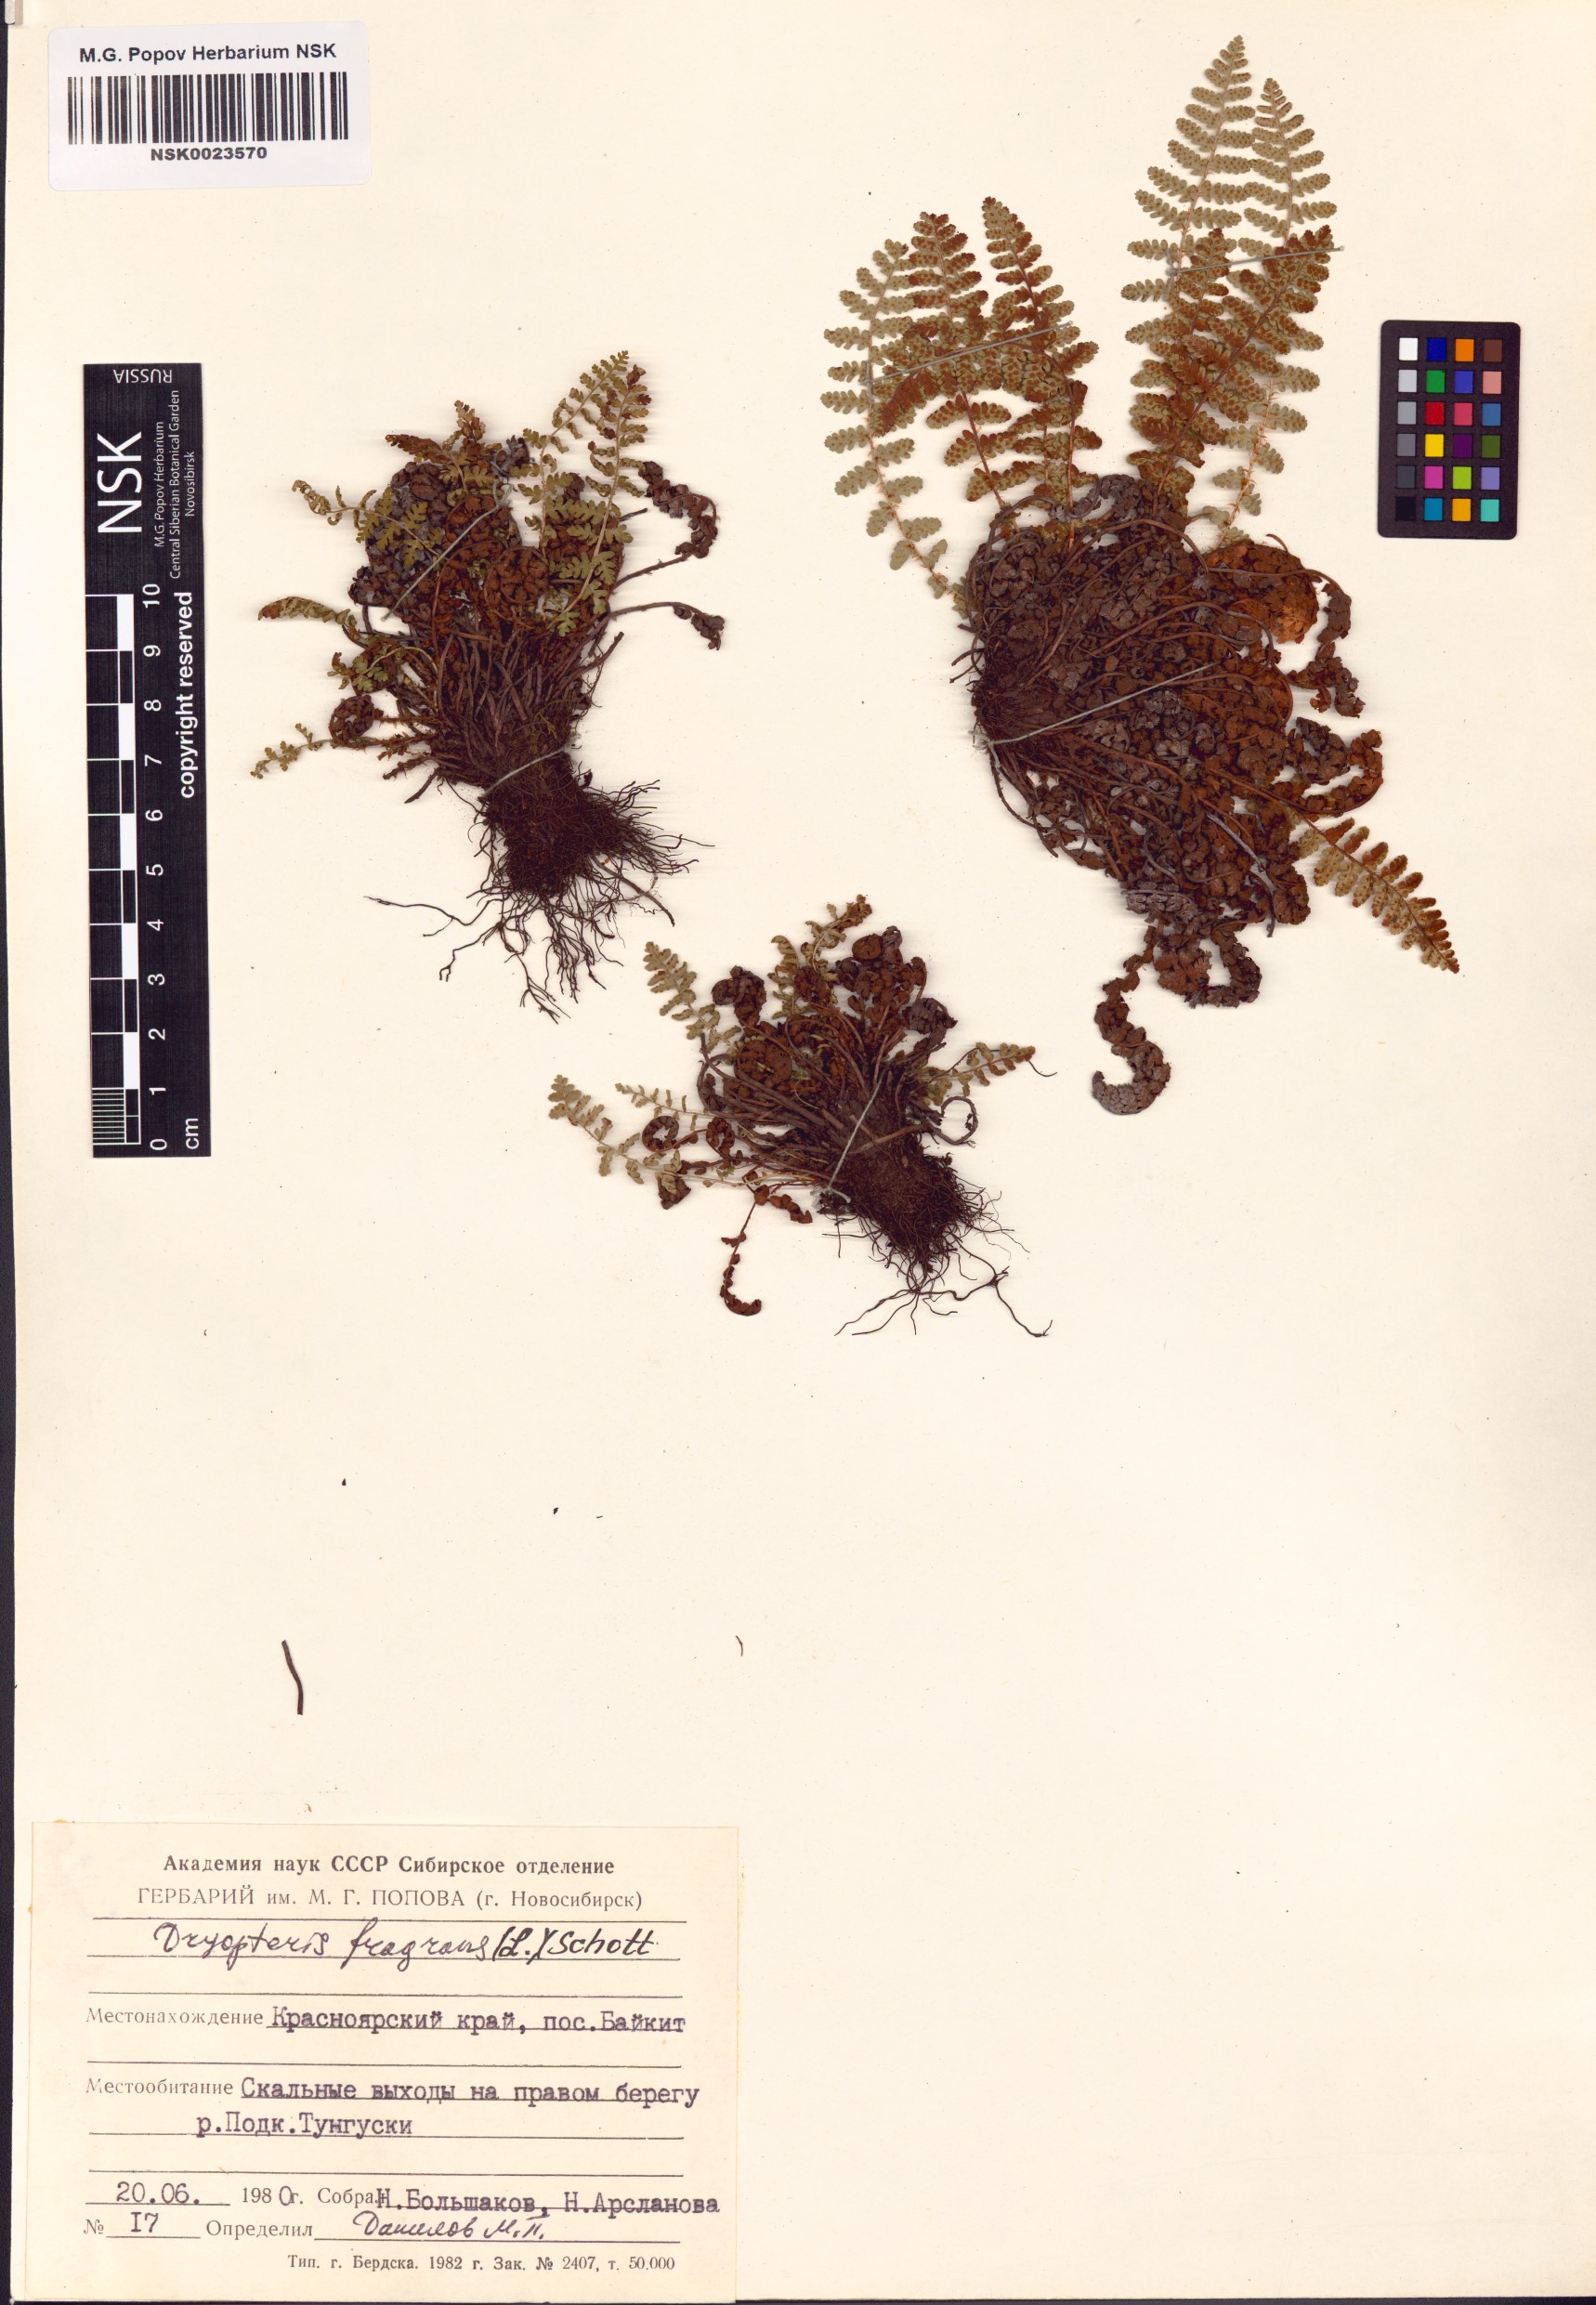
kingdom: Plantae
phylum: Tracheophyta
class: Polypodiopsida
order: Polypodiales
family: Dryopteridaceae
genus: Dryopteris
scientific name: Dryopteris fragrans
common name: Fragrant wood fern
